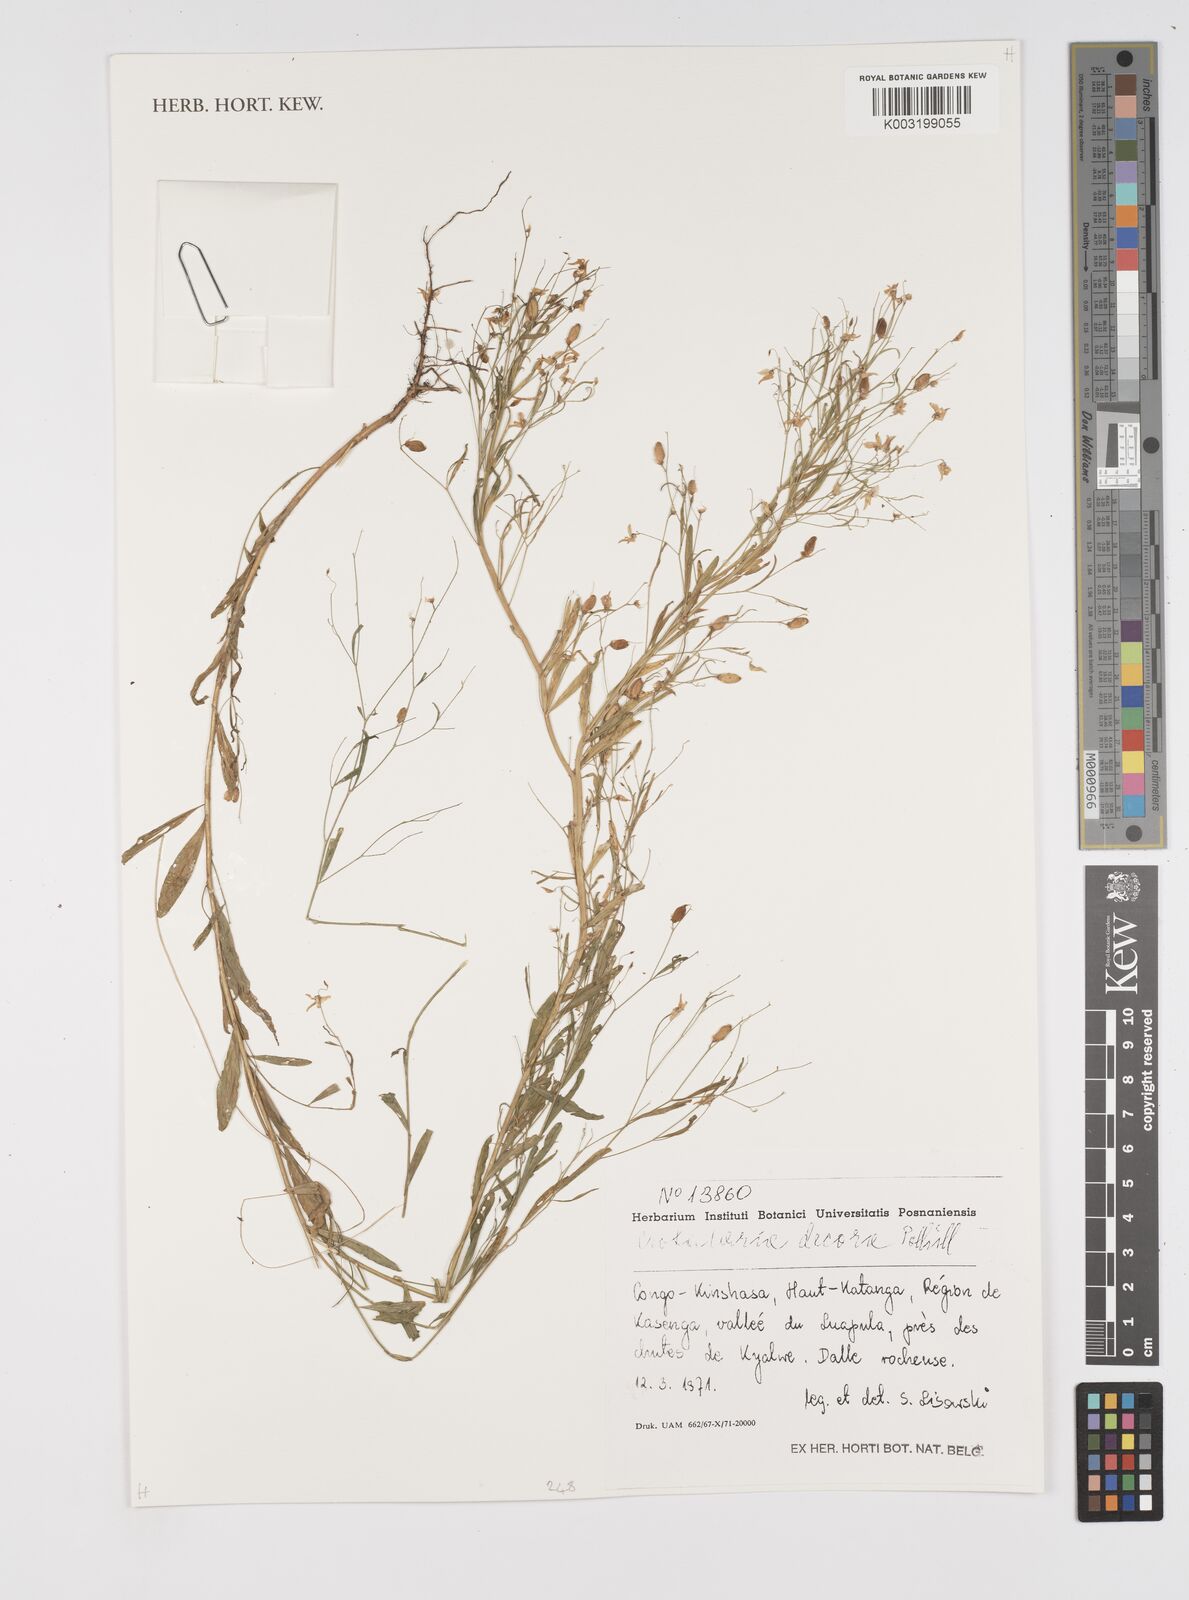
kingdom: Plantae
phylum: Tracheophyta
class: Magnoliopsida
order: Fabales
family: Fabaceae
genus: Crotalaria
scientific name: Crotalaria decora
